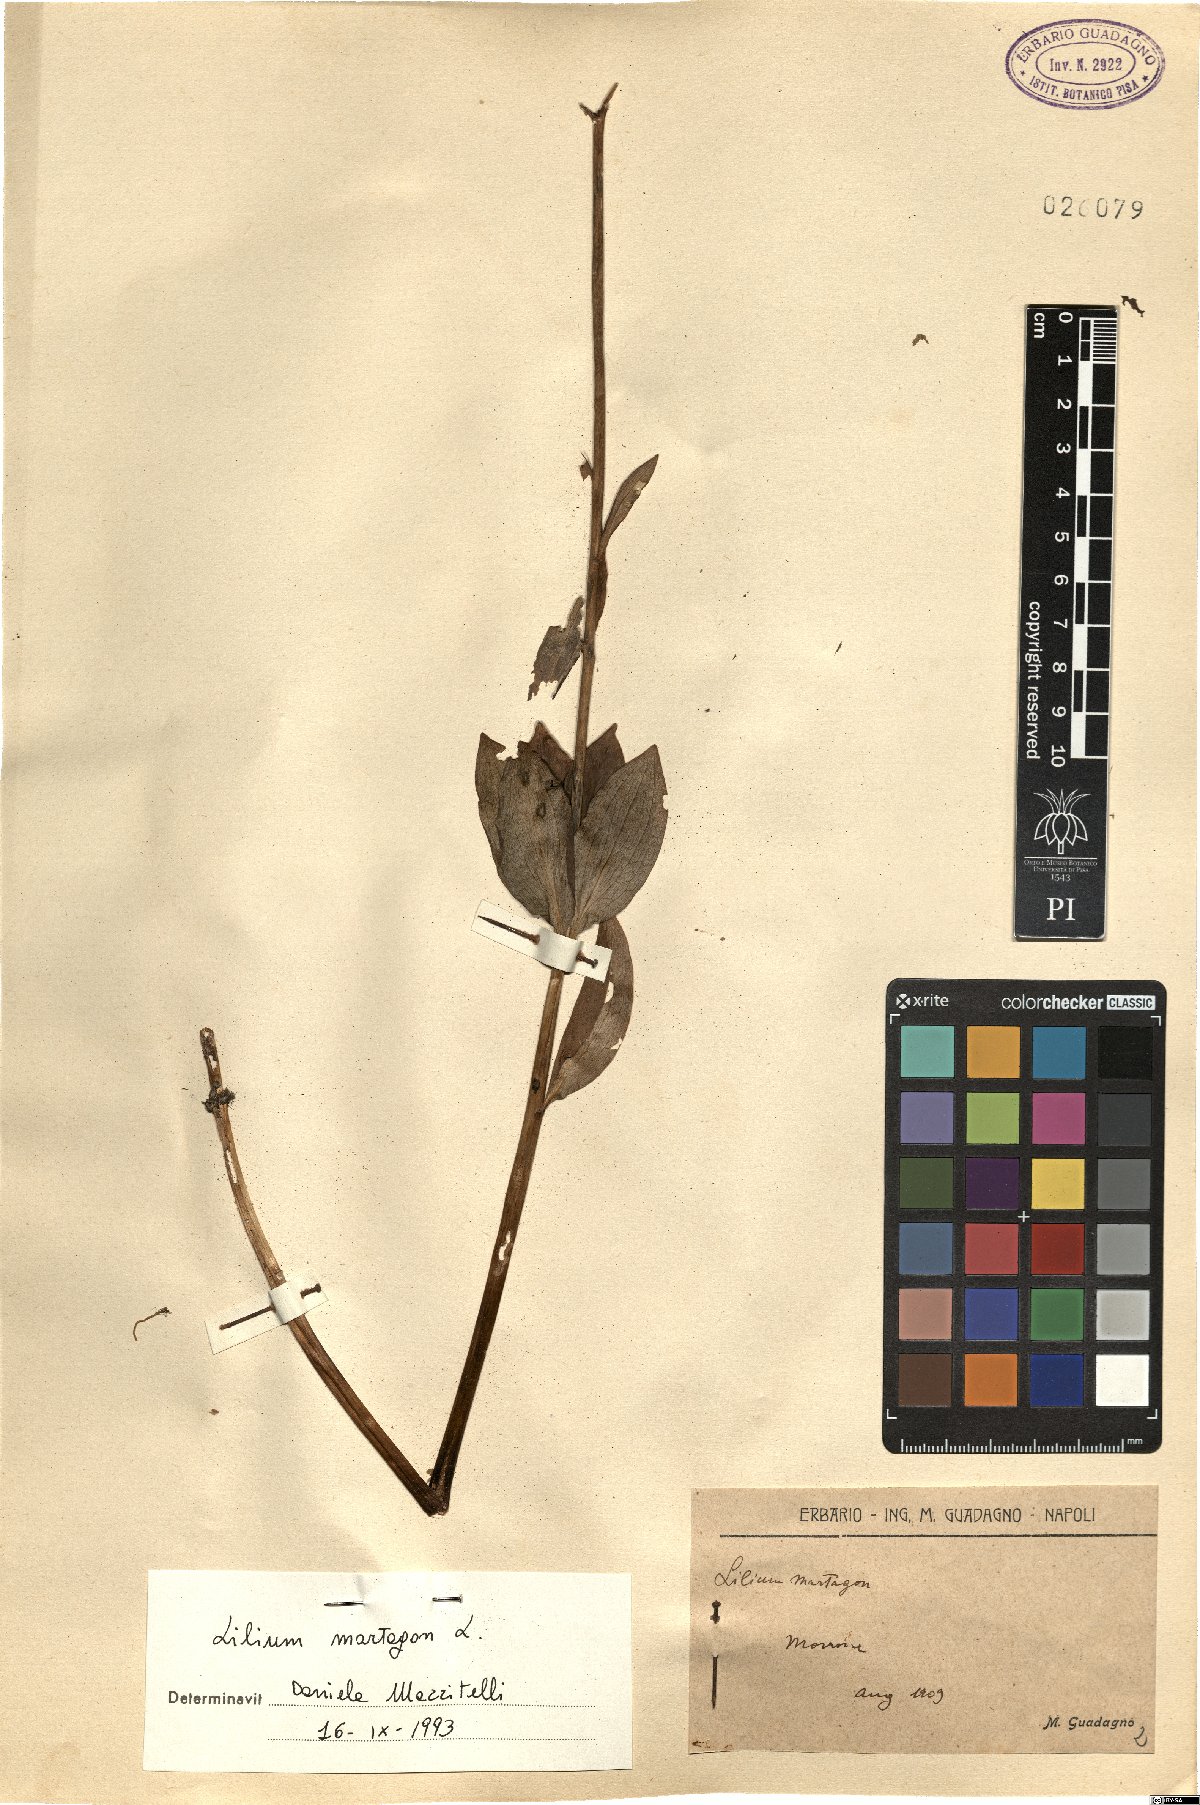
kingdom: Plantae
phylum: Tracheophyta
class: Liliopsida
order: Liliales
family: Liliaceae
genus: Lilium
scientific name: Lilium martagon
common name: Martagon lily
